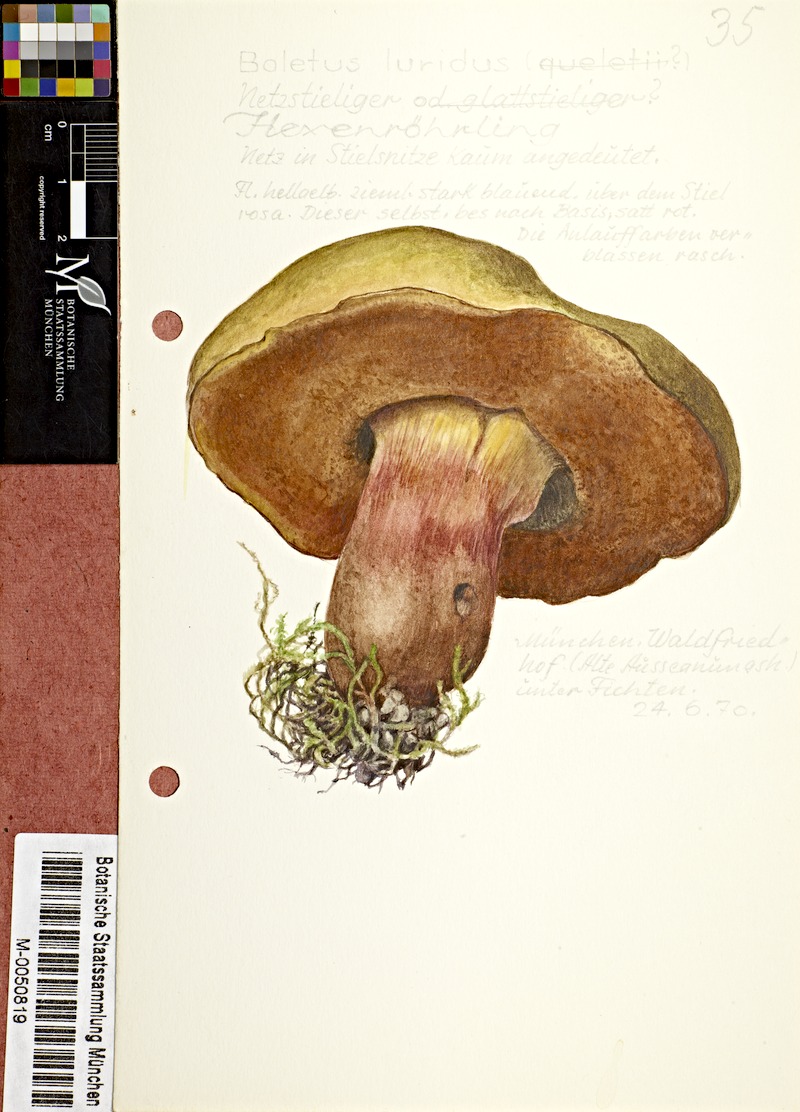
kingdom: Fungi
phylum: Basidiomycota
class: Agaricomycetes
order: Boletales
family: Boletaceae
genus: Suillellus
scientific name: Suillellus luridus
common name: Lurid bolete
